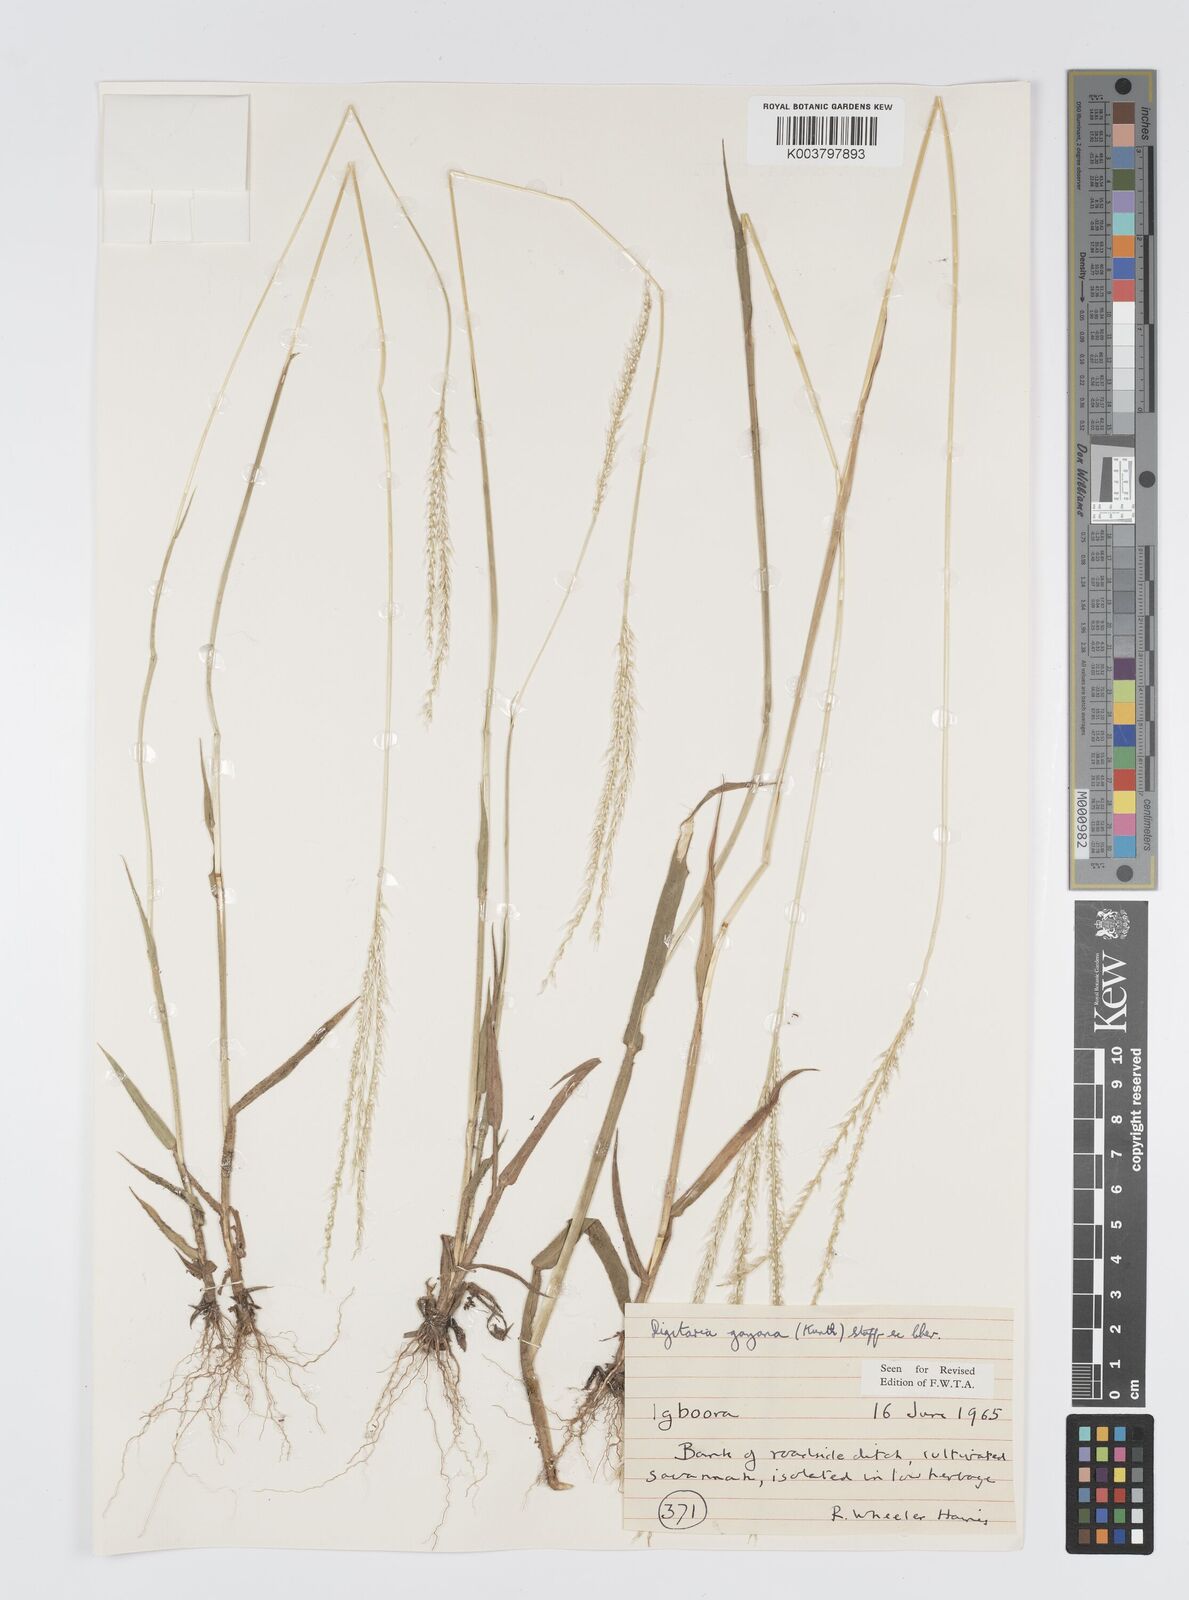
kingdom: Plantae
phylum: Tracheophyta
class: Liliopsida
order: Poales
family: Poaceae
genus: Digitaria
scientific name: Digitaria gayana
